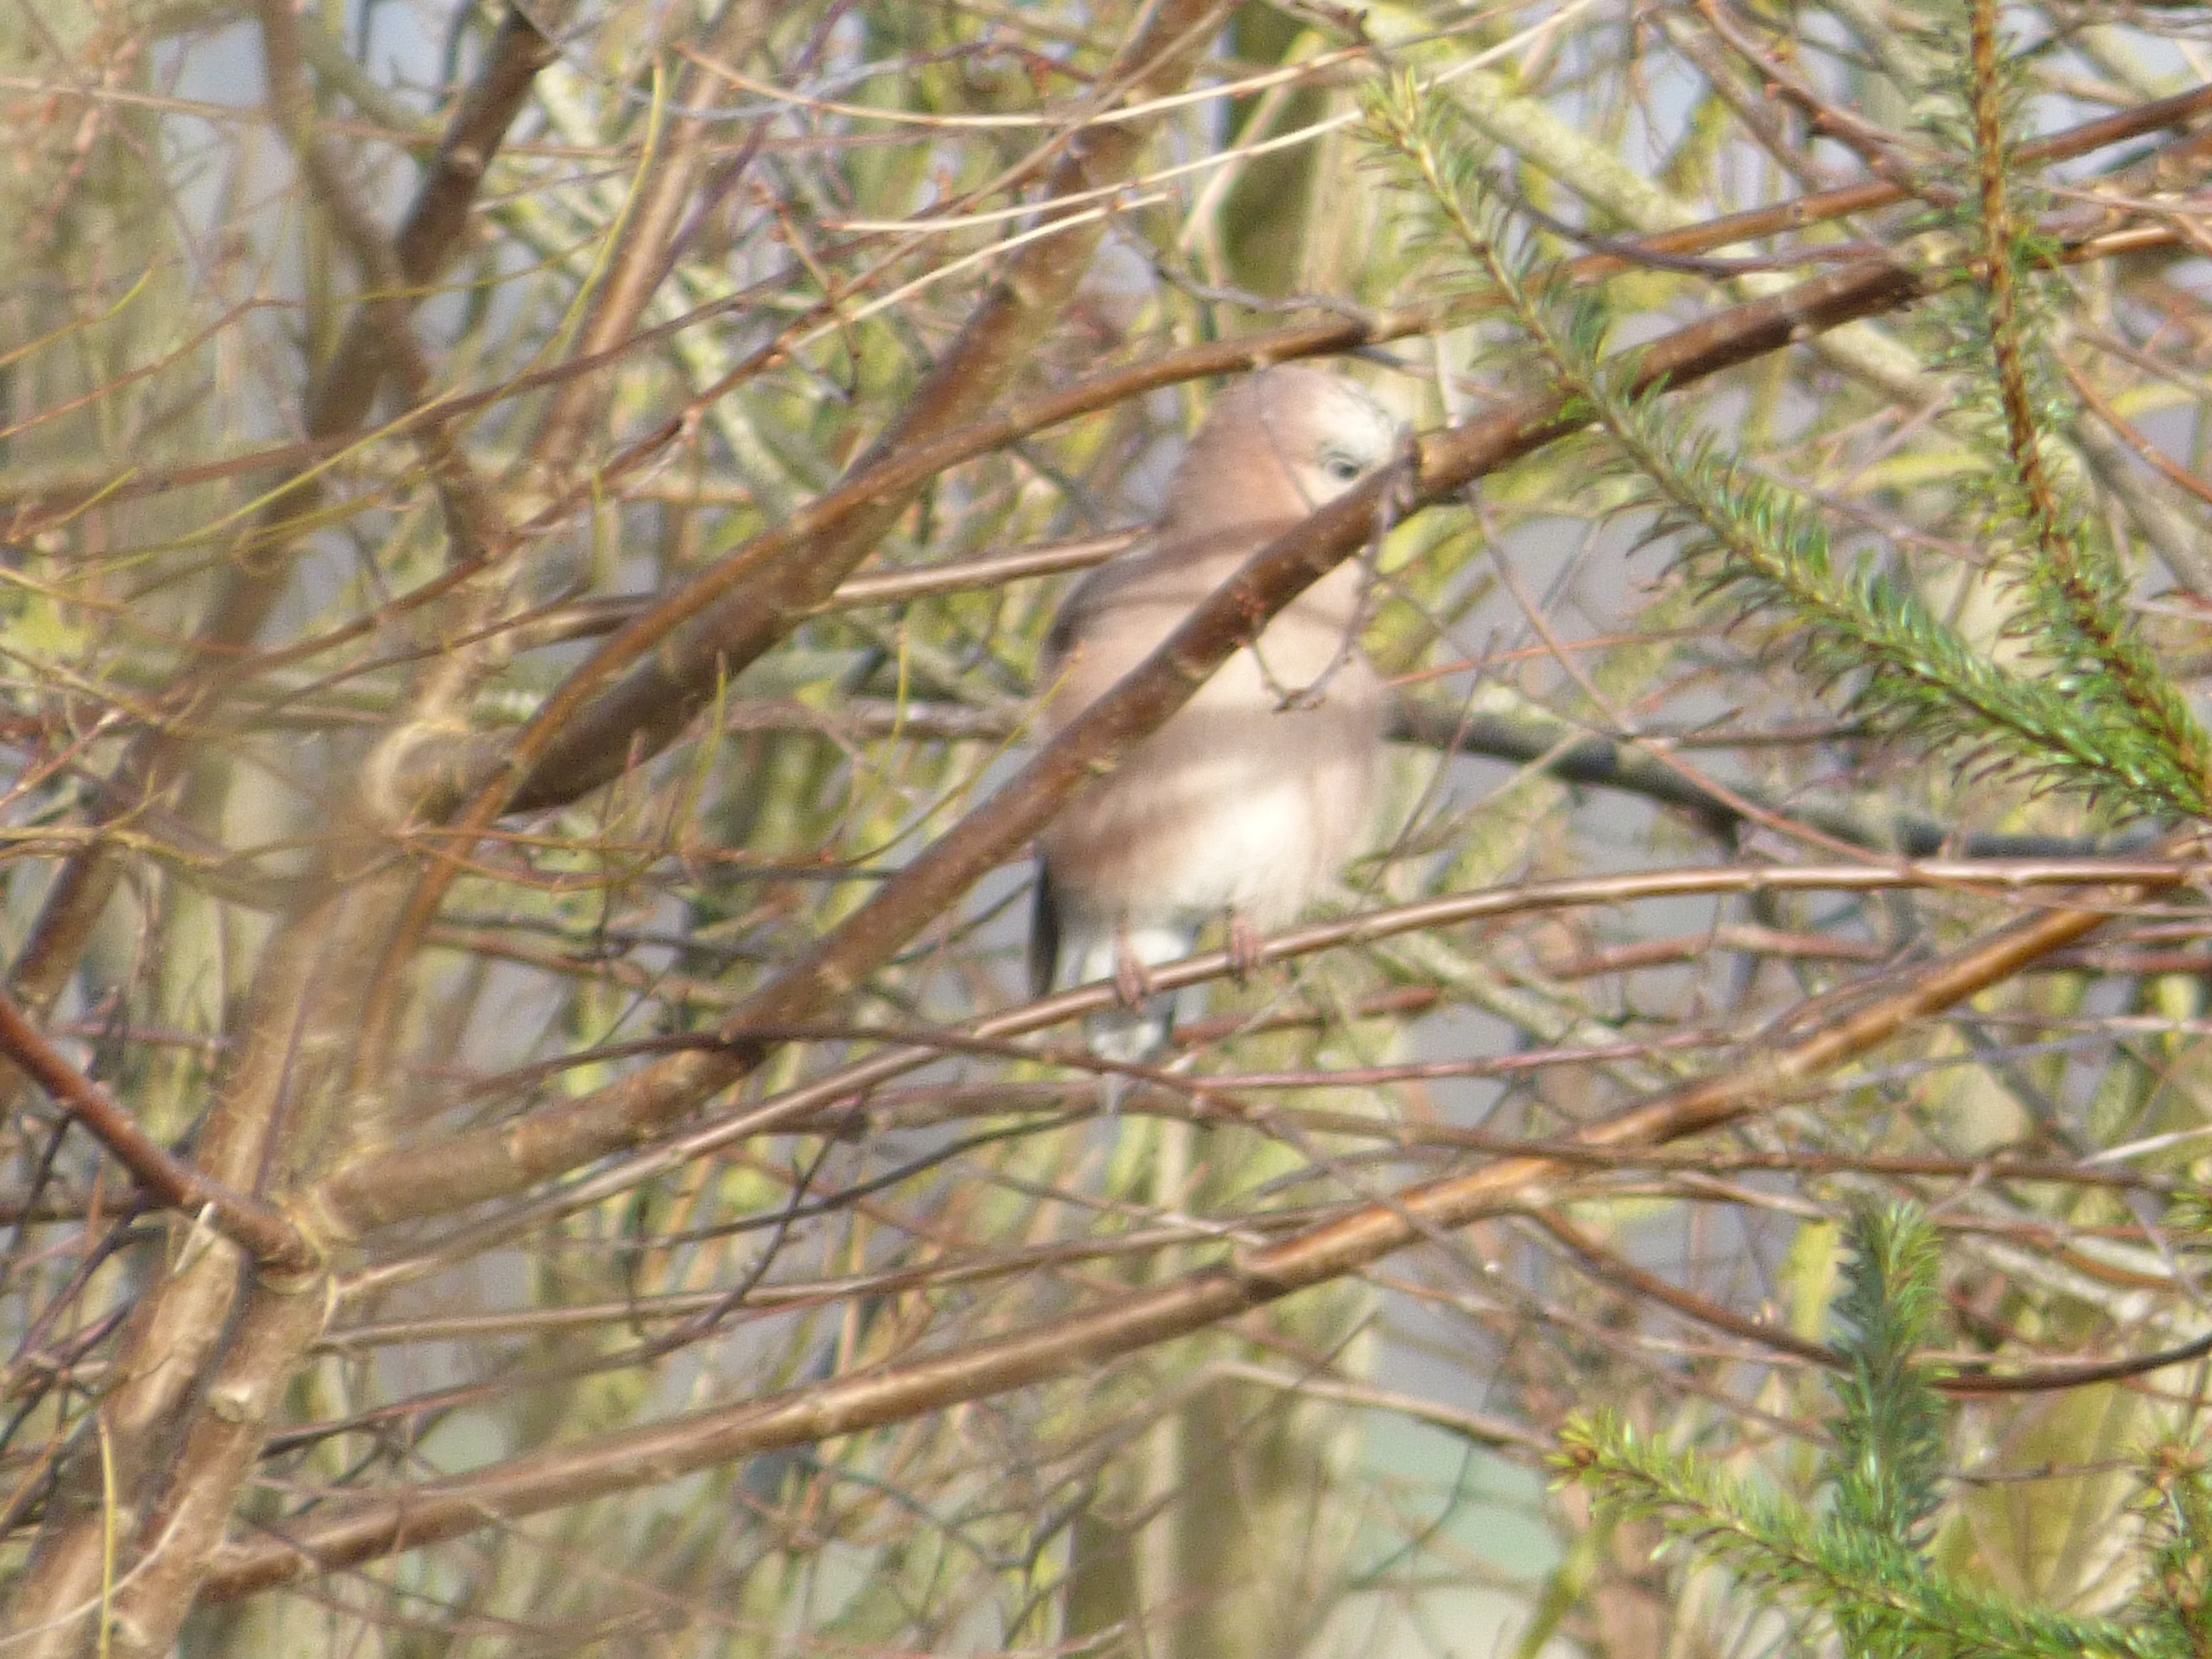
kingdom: Animalia
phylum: Chordata
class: Aves
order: Passeriformes
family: Corvidae
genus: Garrulus
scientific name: Garrulus glandarius
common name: Skovskade
